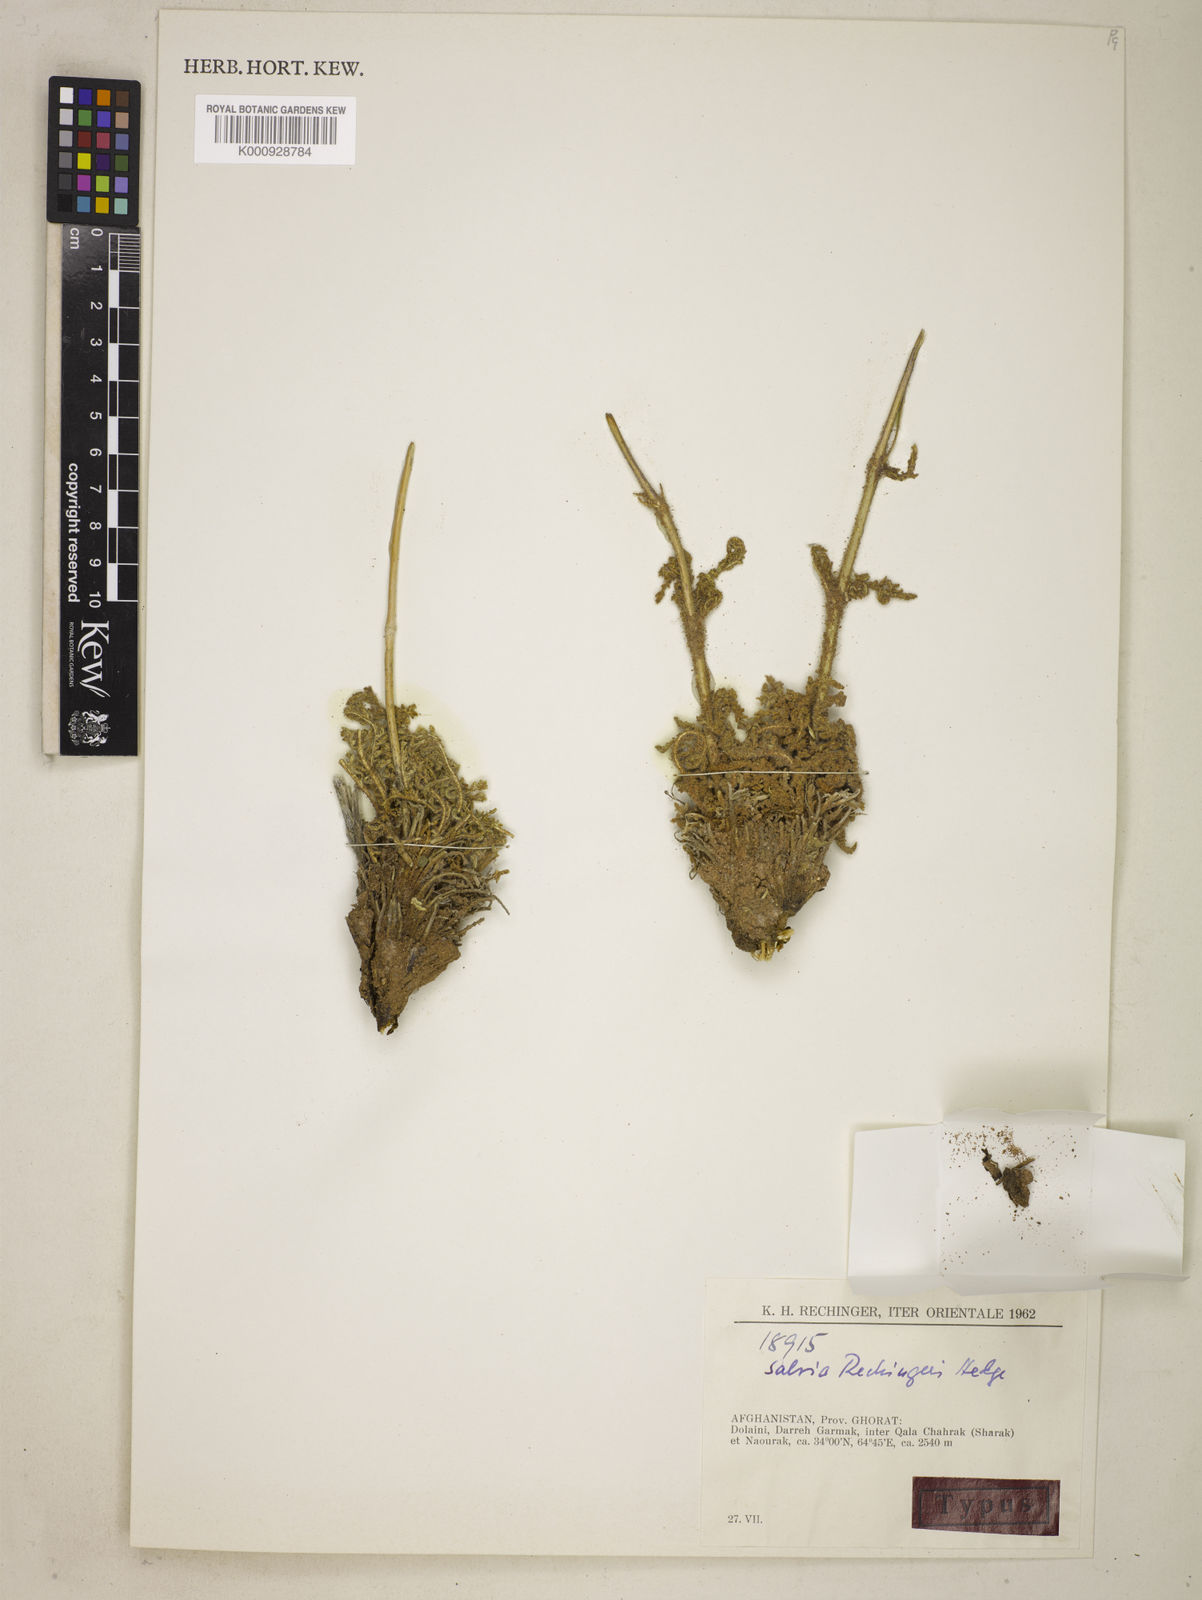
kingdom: Plantae
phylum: Tracheophyta
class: Magnoliopsida
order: Lamiales
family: Lamiaceae
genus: Stachys
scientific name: Stachys
